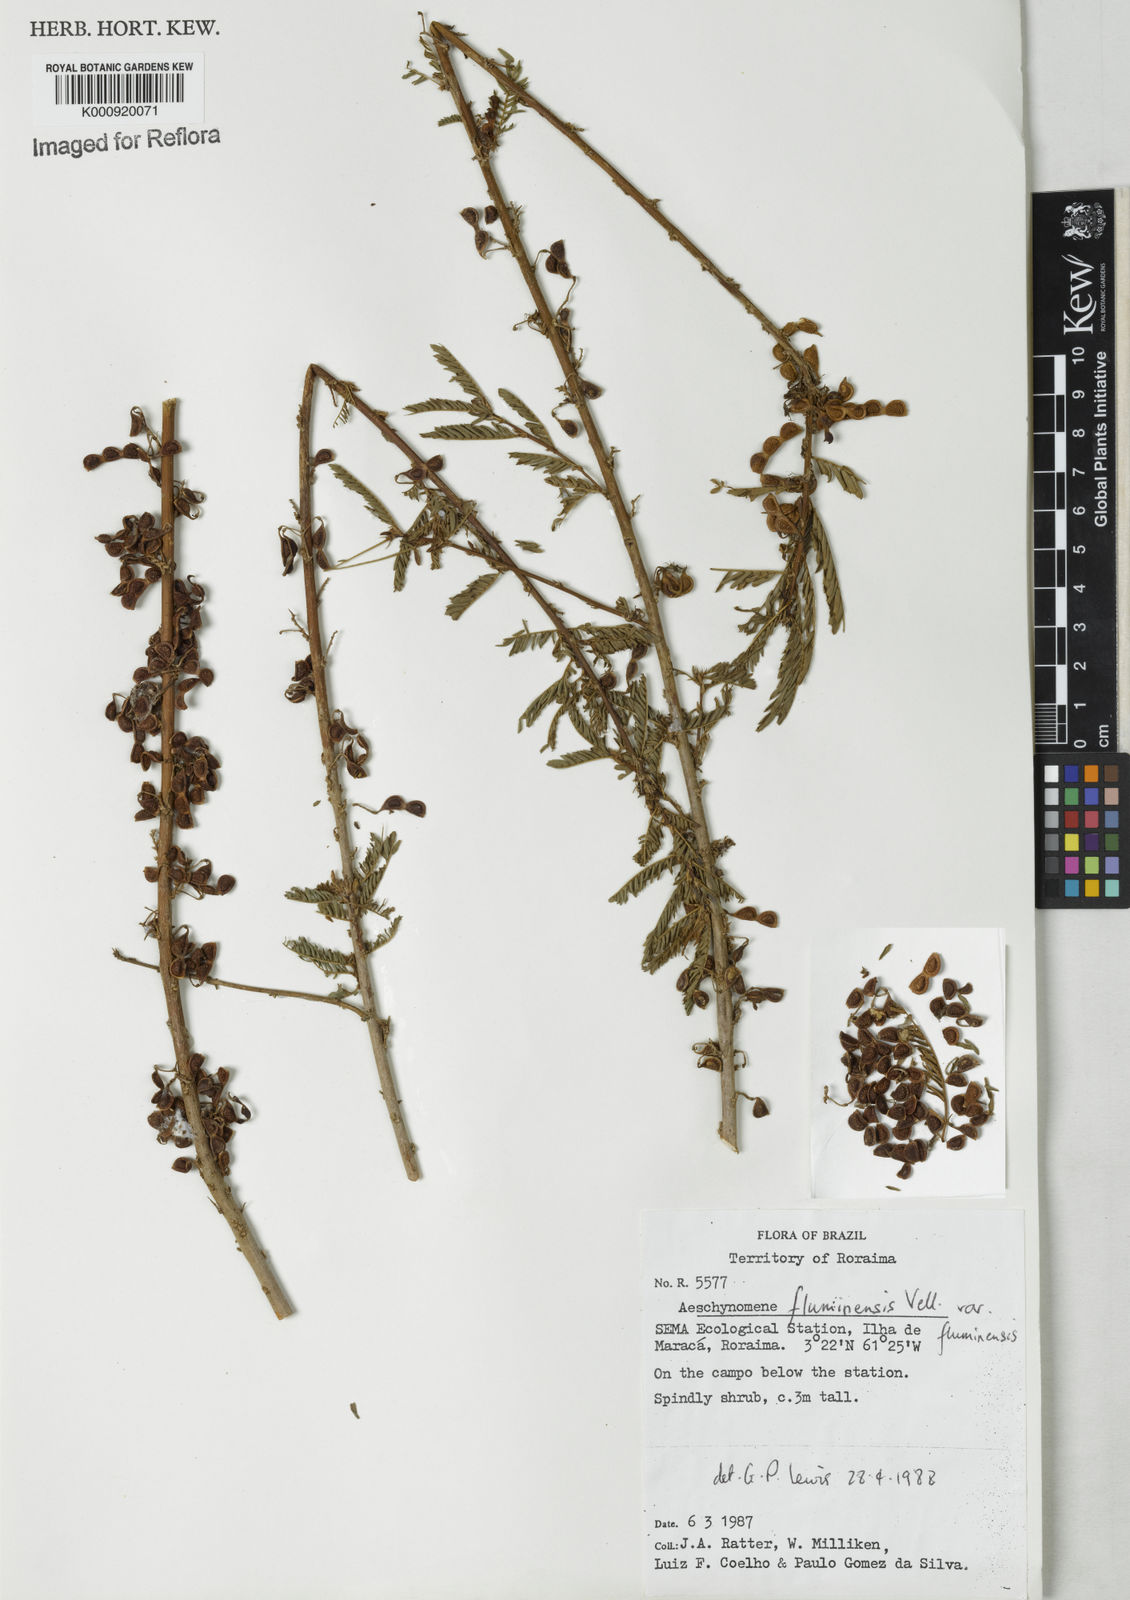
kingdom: Plantae
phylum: Tracheophyta
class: Magnoliopsida
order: Fabales
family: Fabaceae
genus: Aeschynomene
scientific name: Aeschynomene fluminensis
